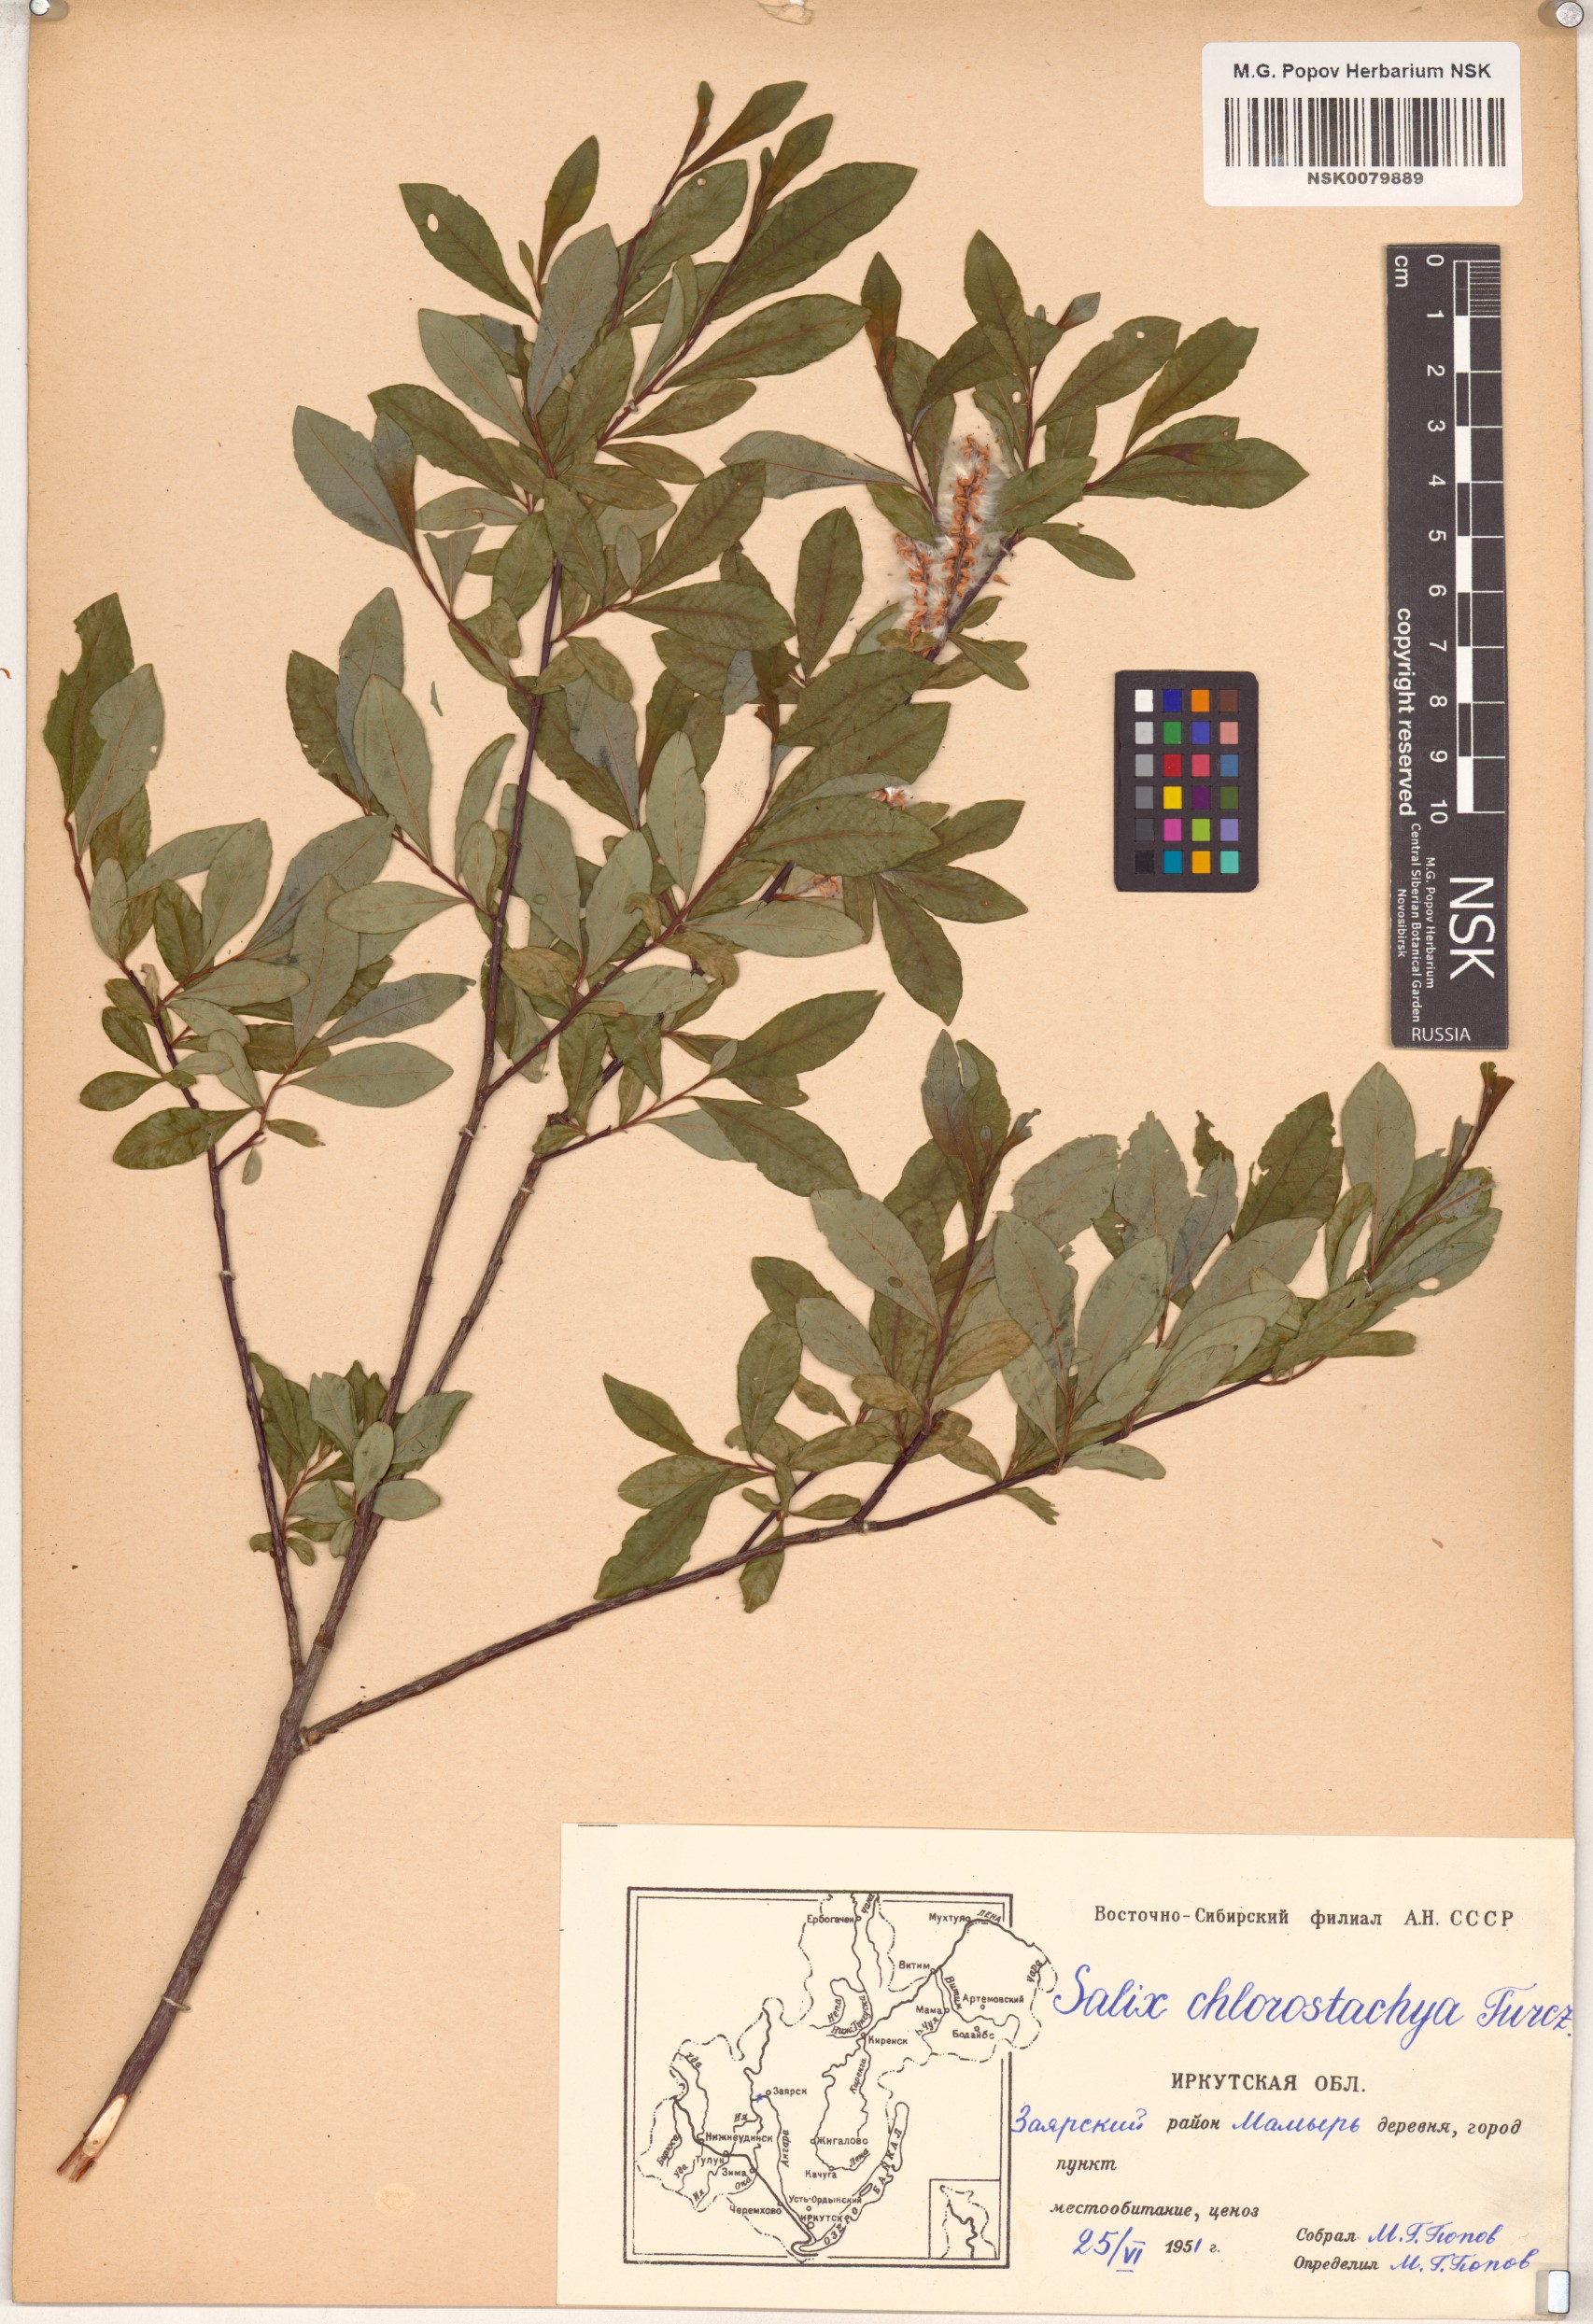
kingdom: Plantae
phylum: Tracheophyta
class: Magnoliopsida
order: Malpighiales
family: Salicaceae
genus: Salix
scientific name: Salix rhamnifolia
